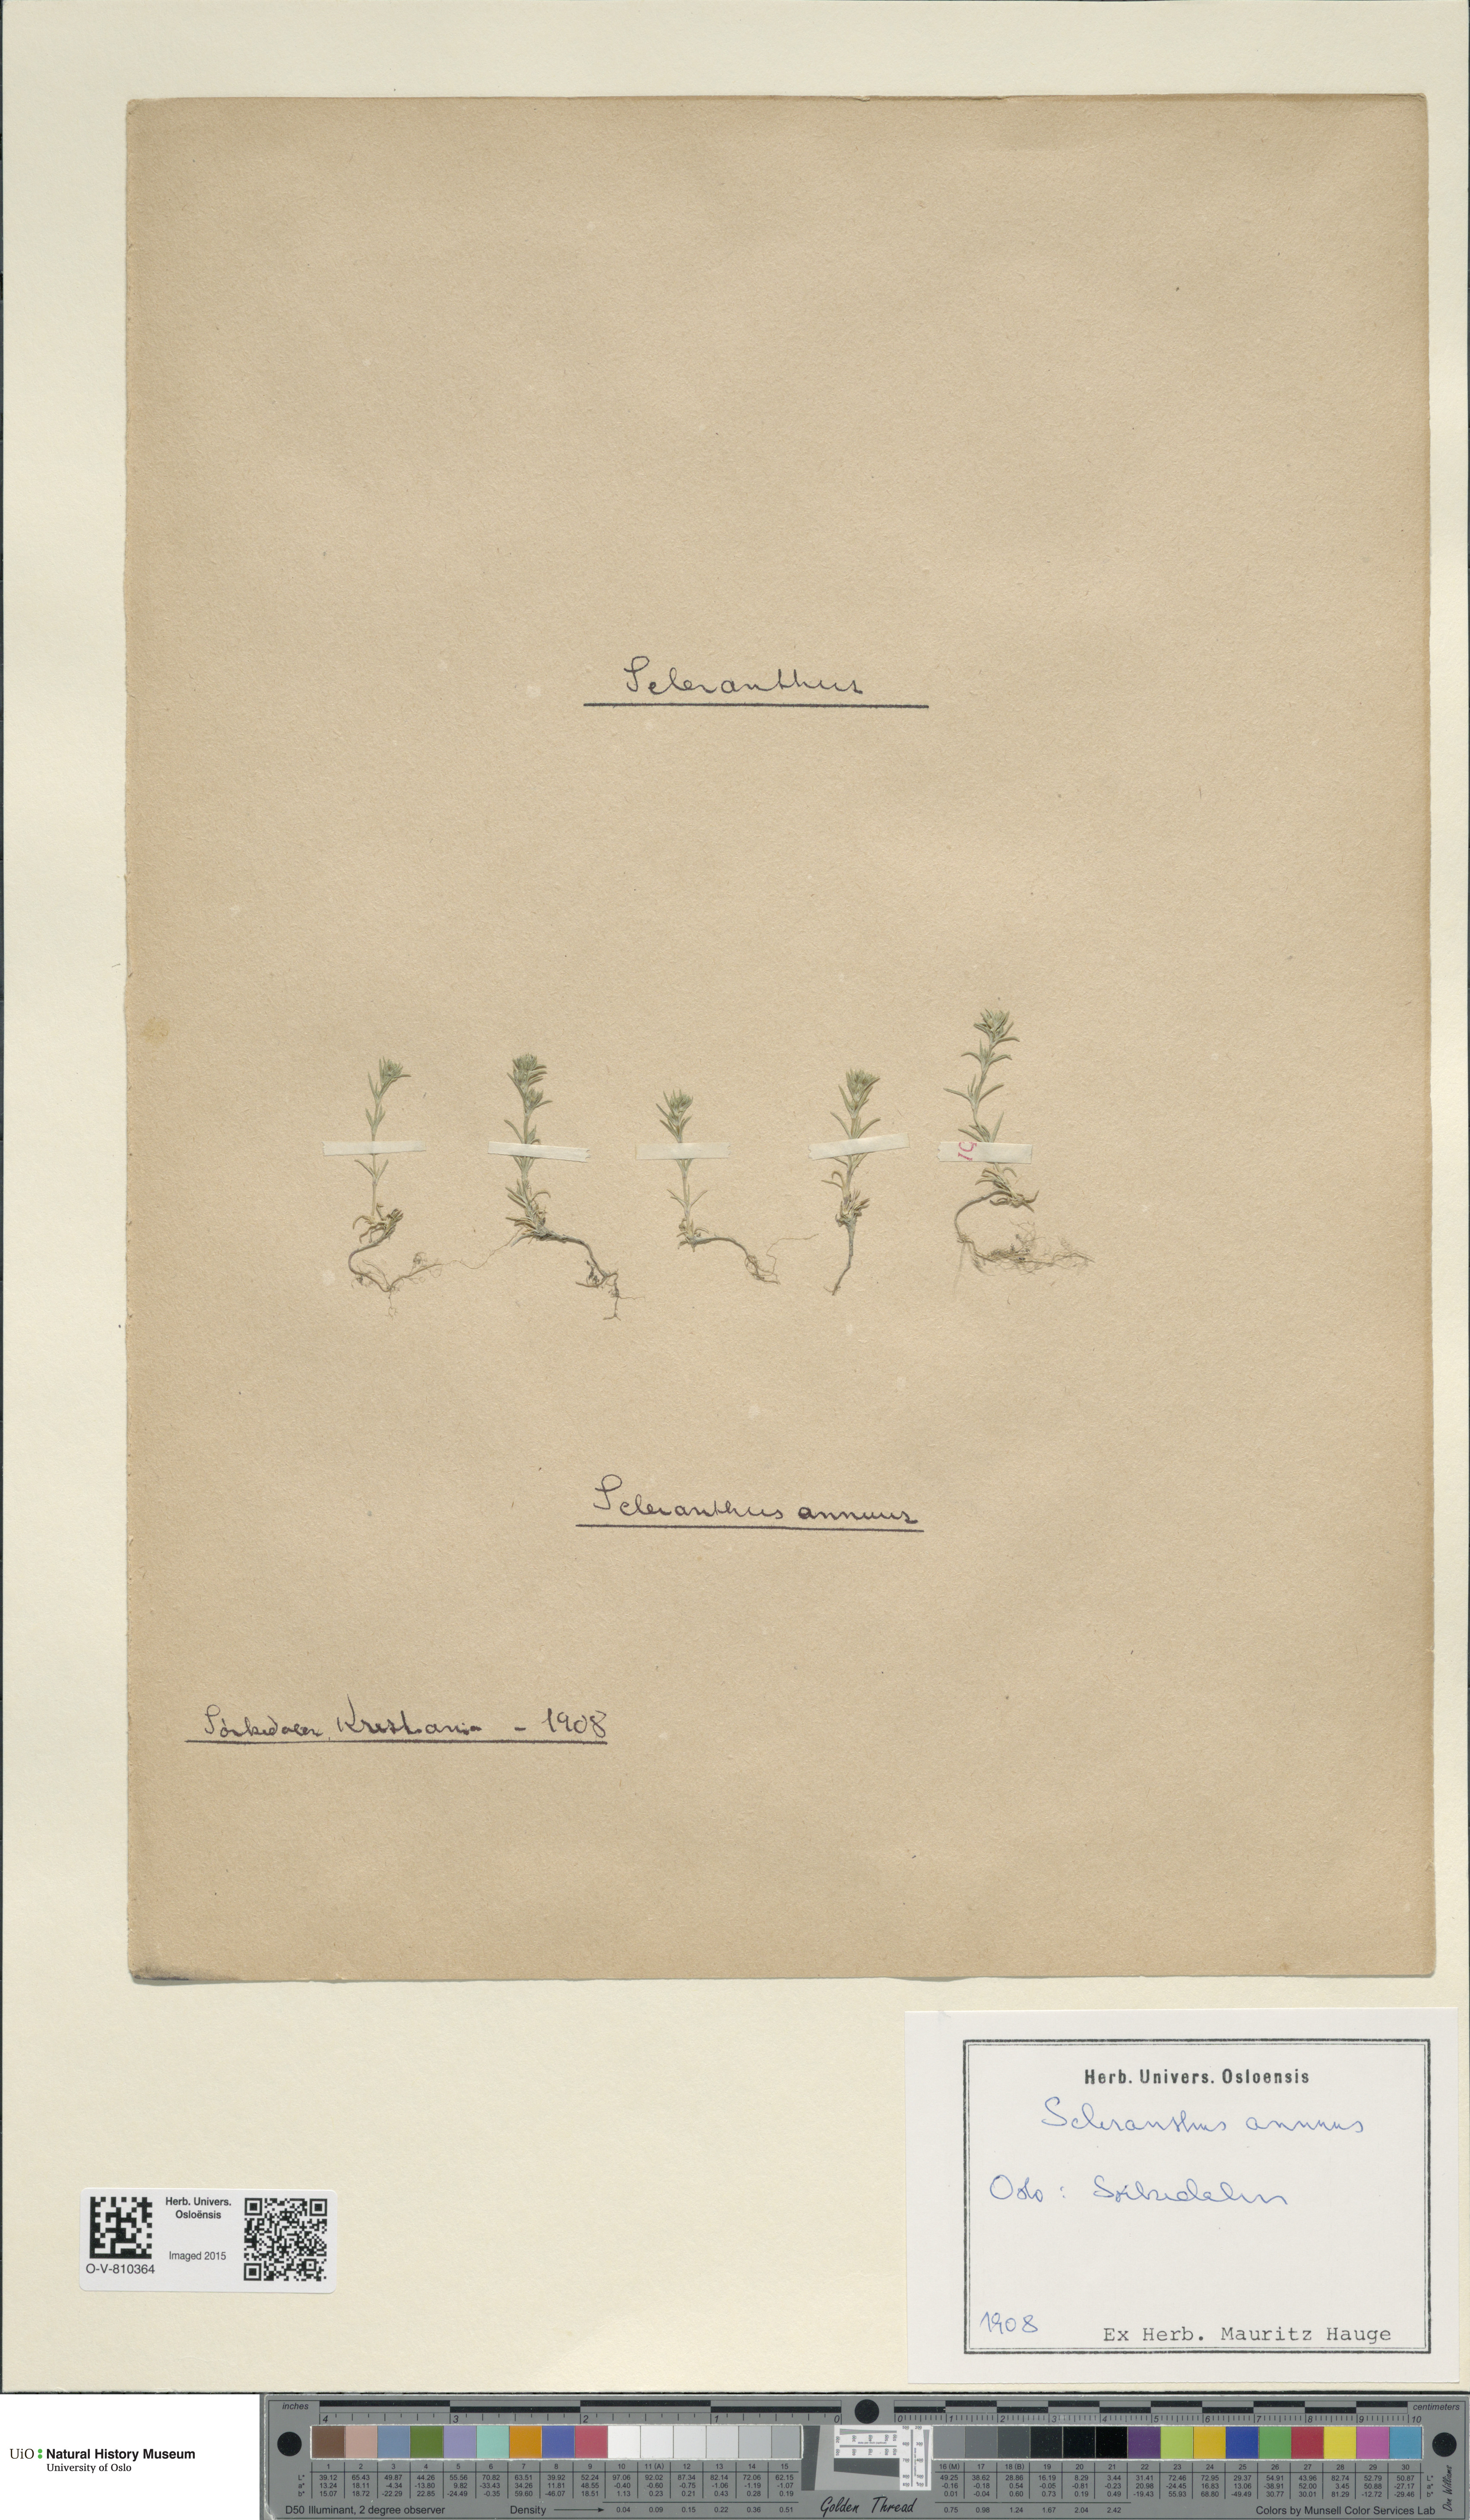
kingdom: Plantae
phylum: Tracheophyta
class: Magnoliopsida
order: Caryophyllales
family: Caryophyllaceae
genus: Scleranthus
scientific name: Scleranthus annuus
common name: Annual knawel
